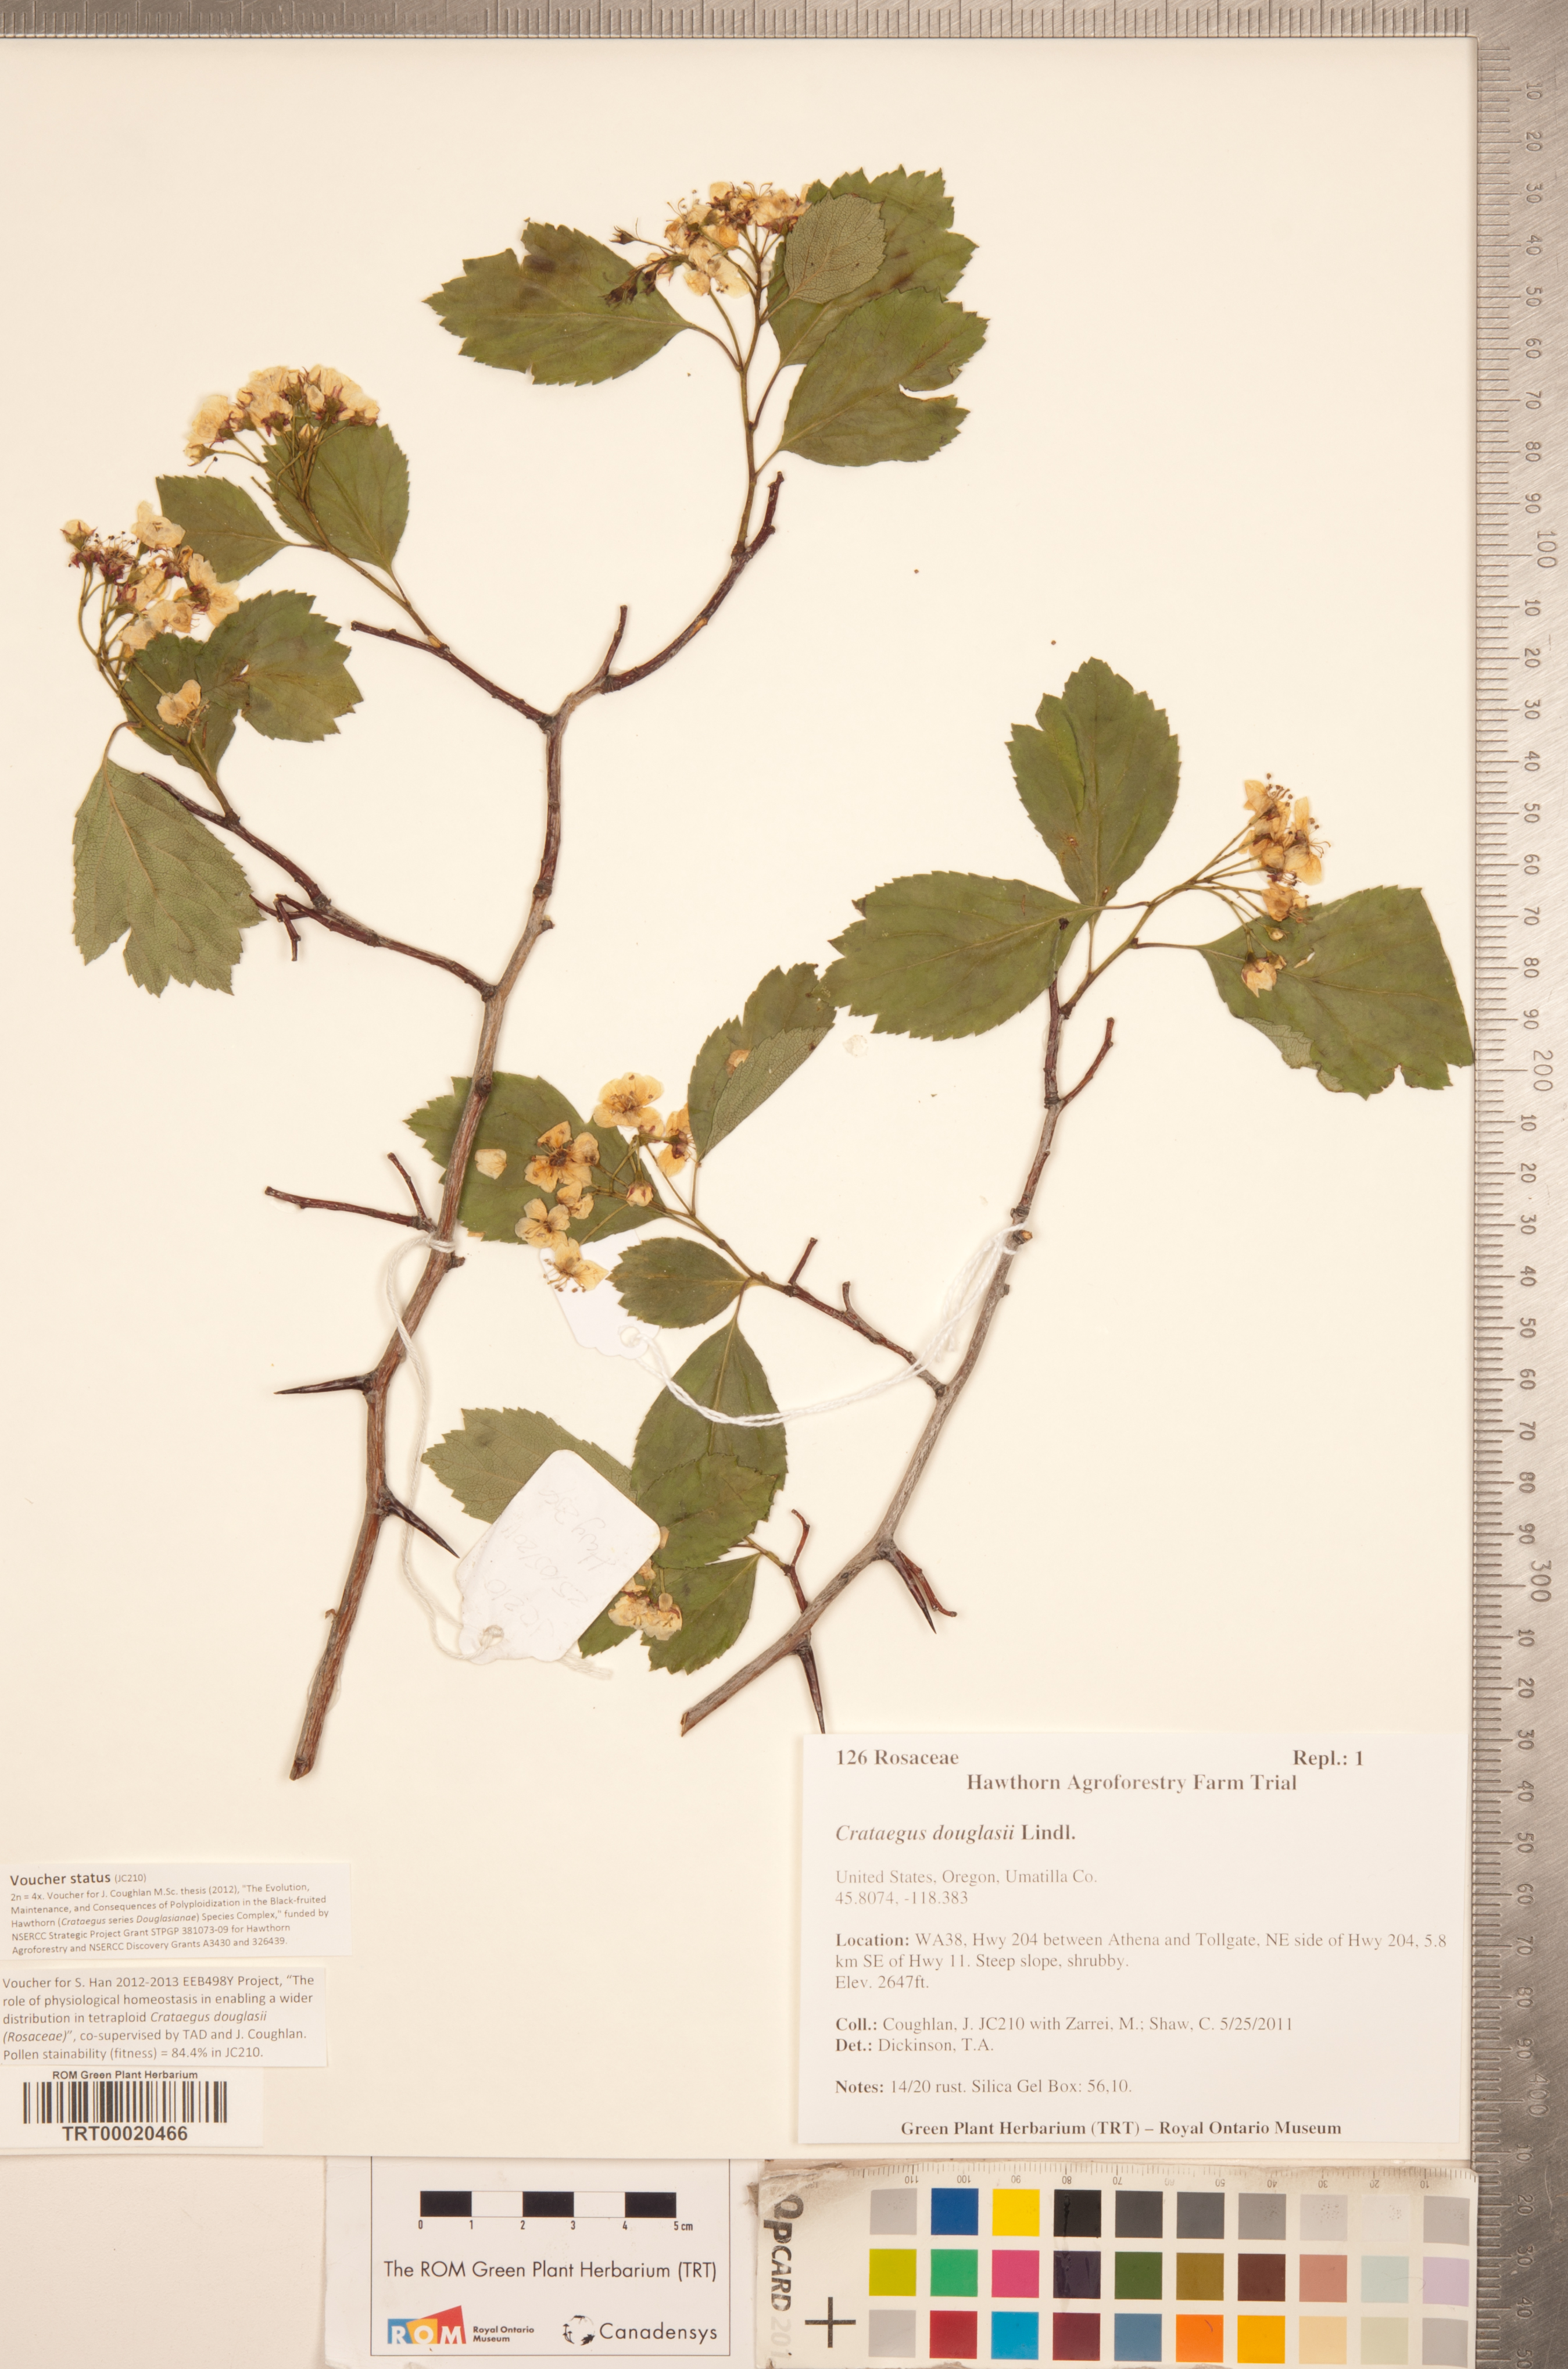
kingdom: Plantae
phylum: Tracheophyta
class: Magnoliopsida
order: Rosales
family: Rosaceae
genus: Crataegus
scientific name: Crataegus douglasii
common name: Black hawthorn
